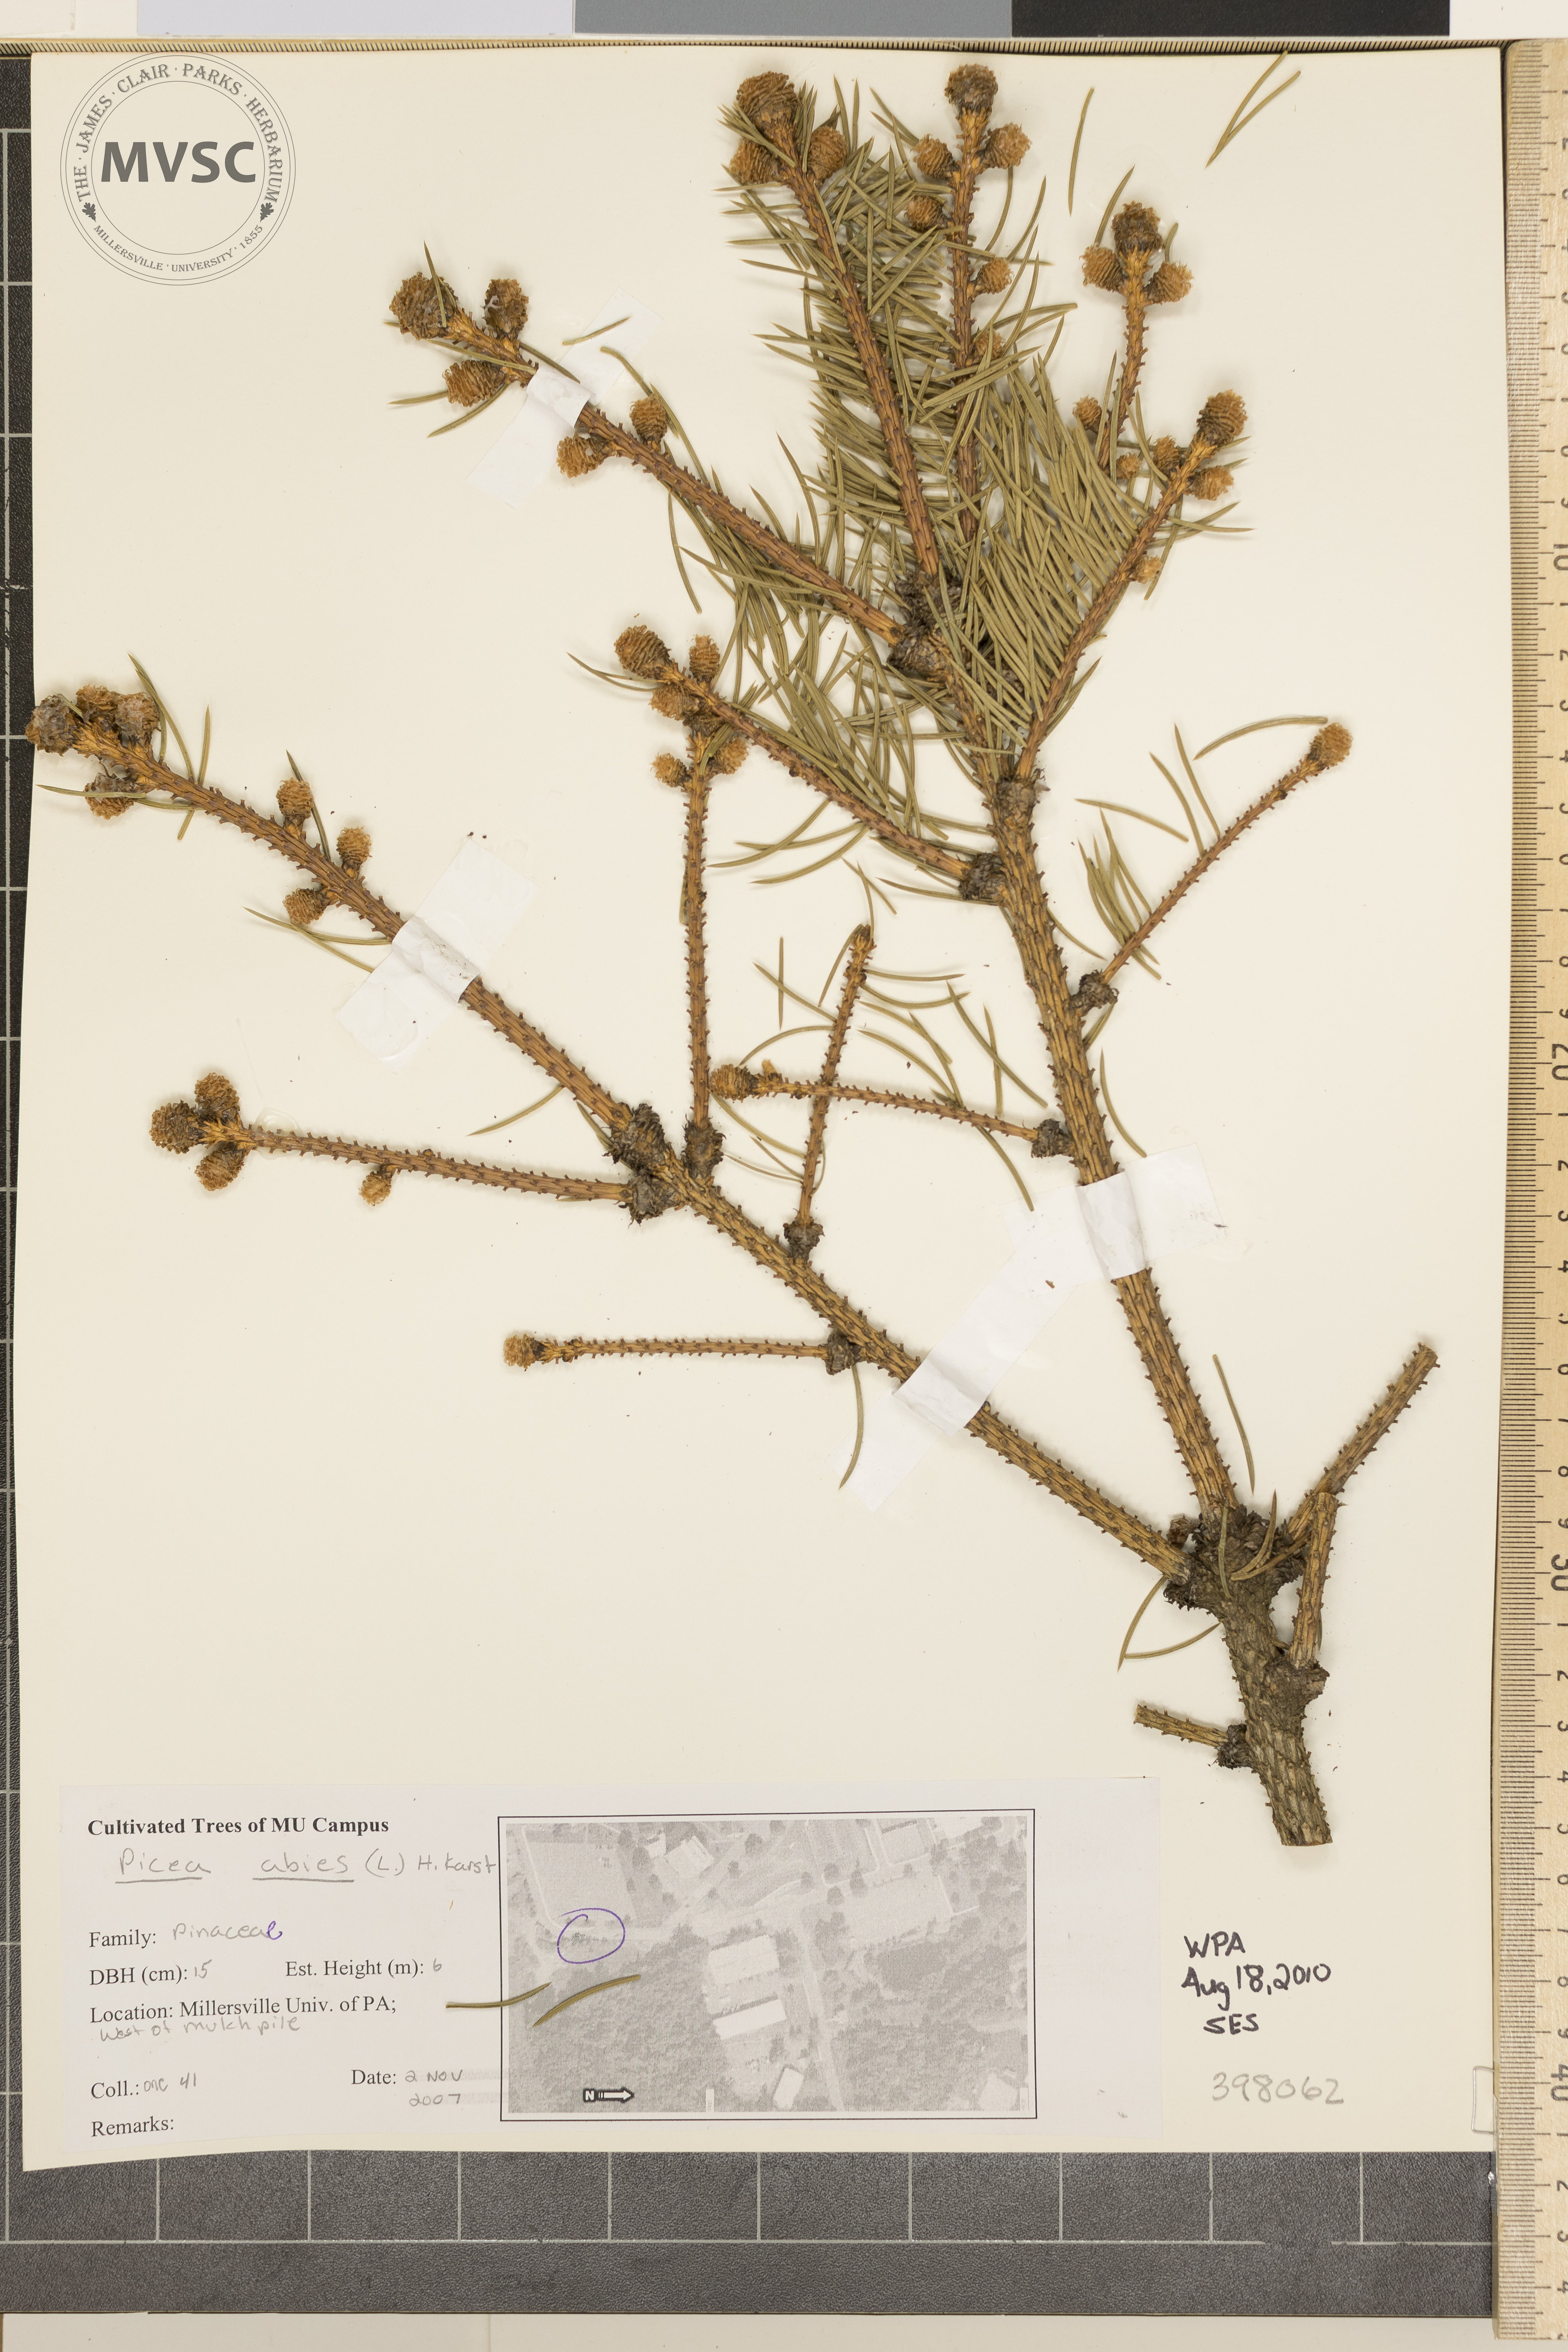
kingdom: Plantae
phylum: Tracheophyta
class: Pinopsida
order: Pinales
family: Pinaceae
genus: Picea
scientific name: Picea abies
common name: Norway spruce
